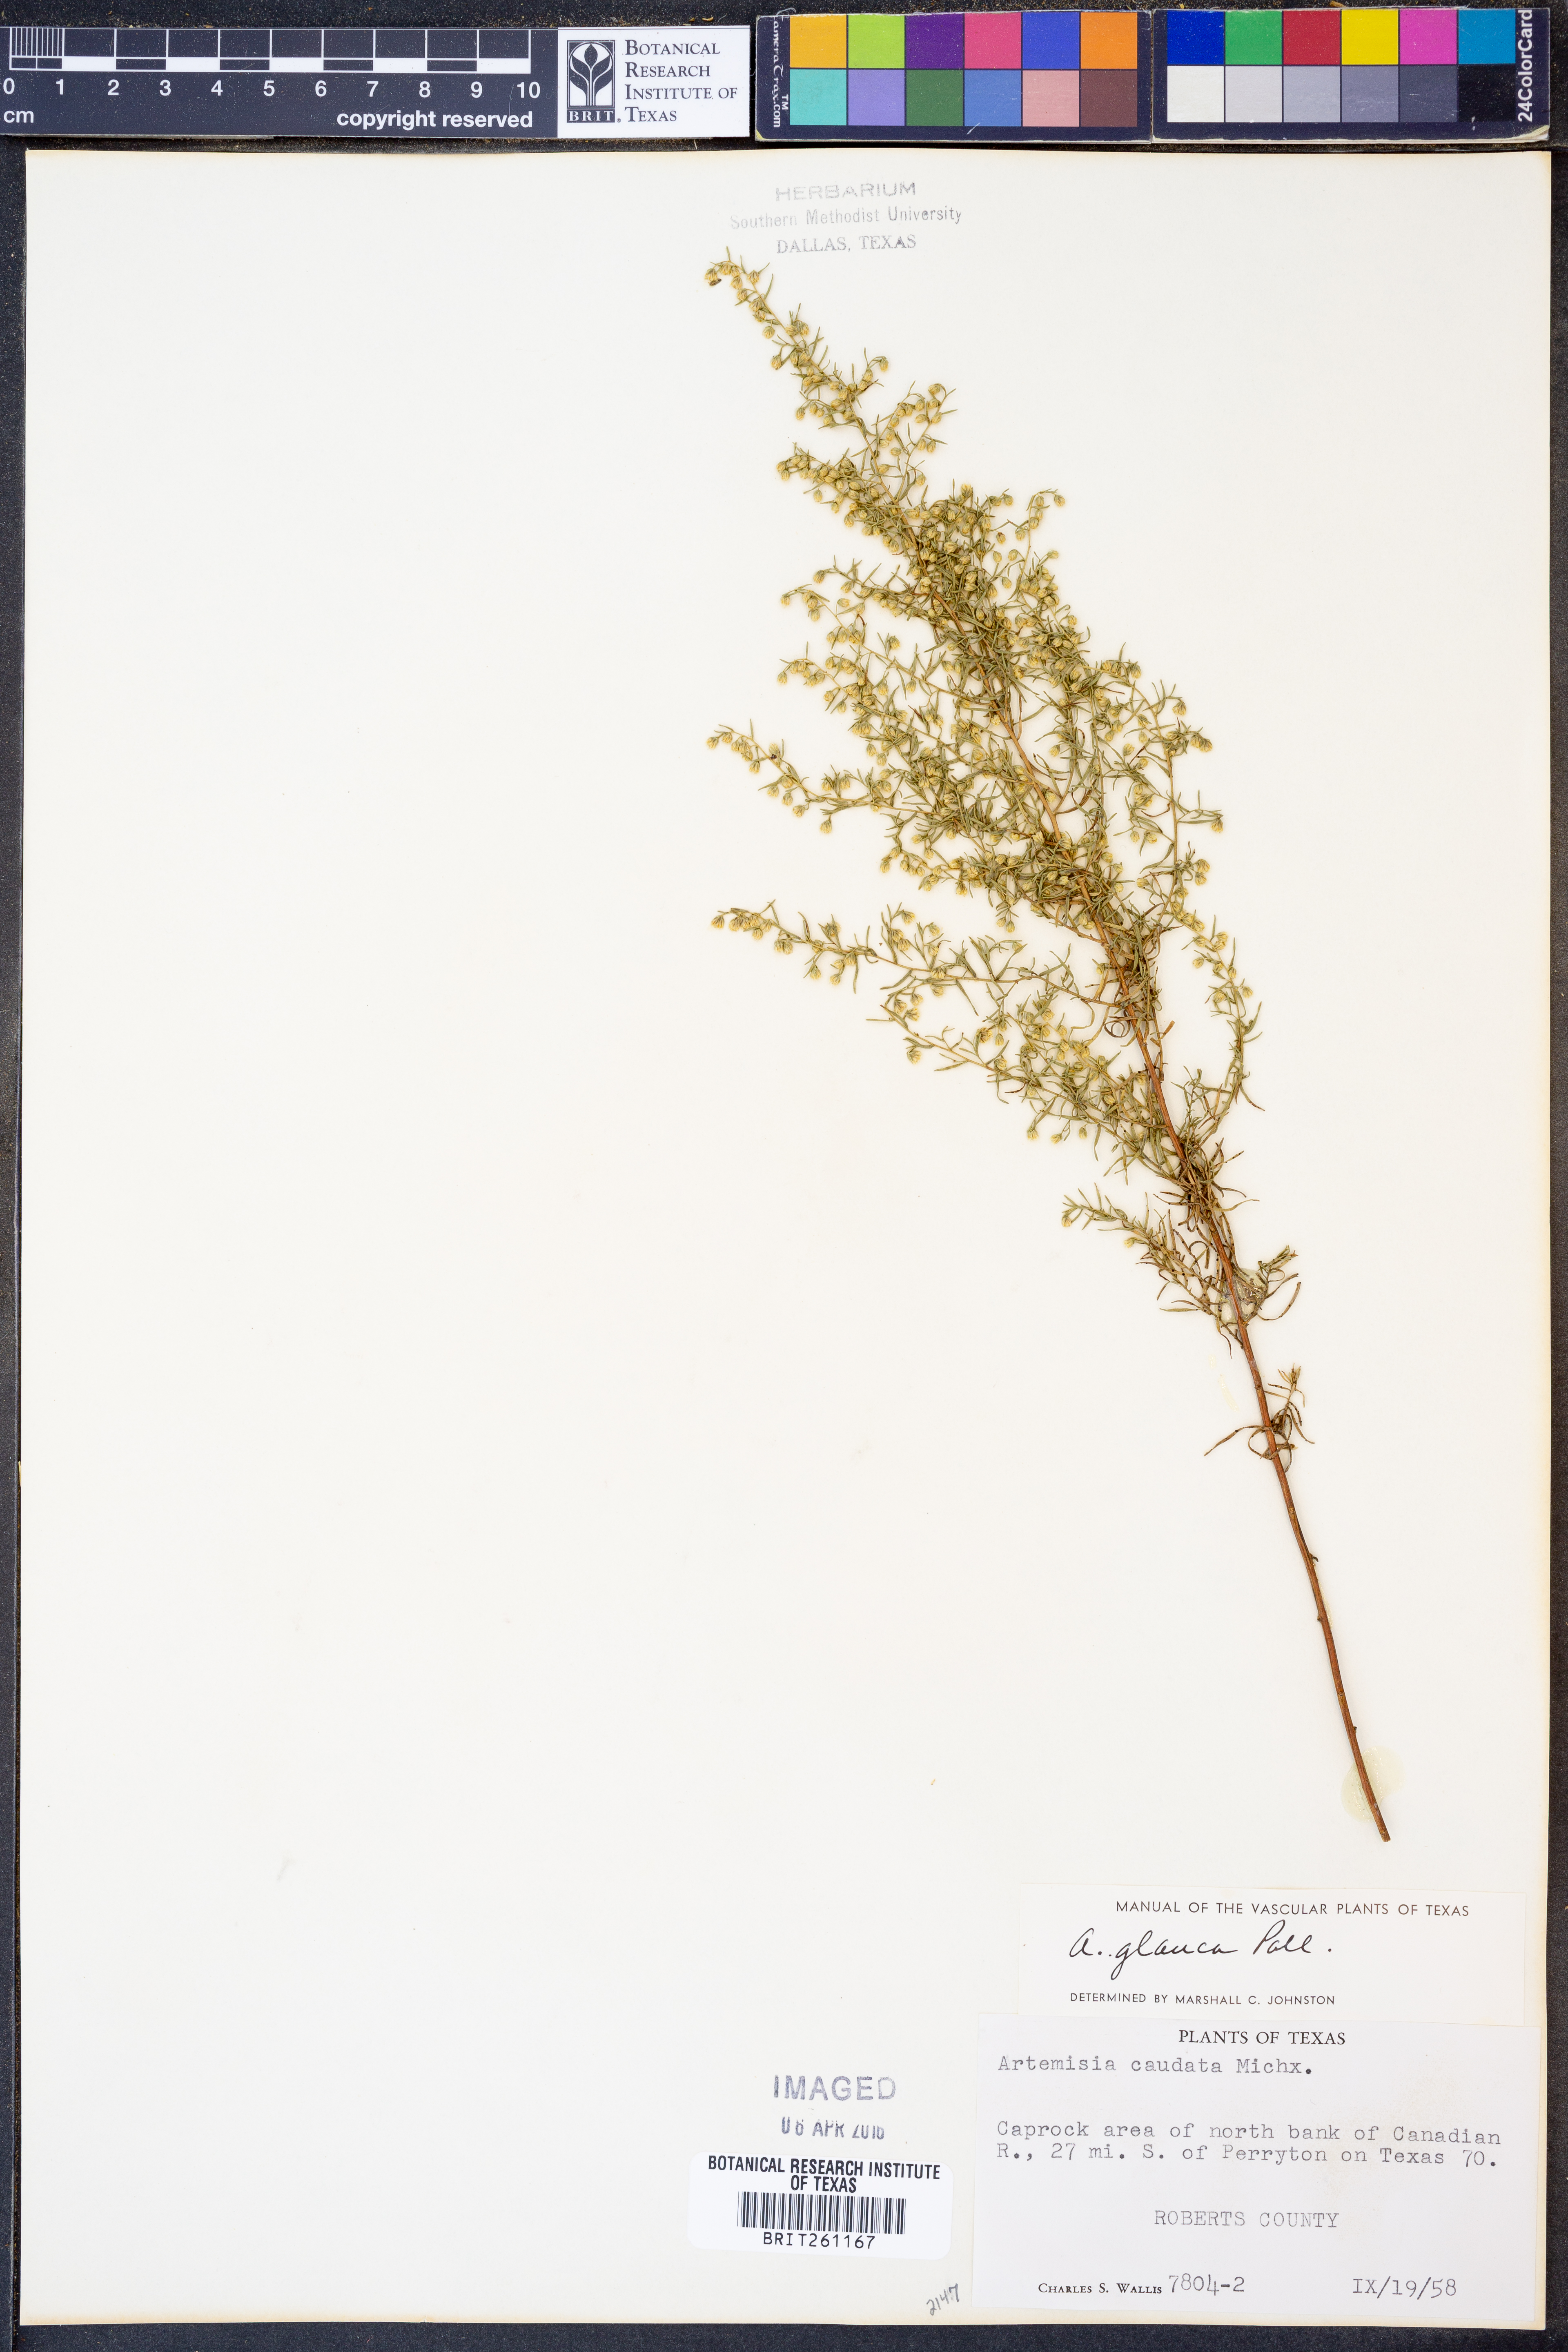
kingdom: Plantae
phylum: Tracheophyta
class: Magnoliopsida
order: Asterales
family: Asteraceae
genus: Artemisia
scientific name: Artemisia glauca
